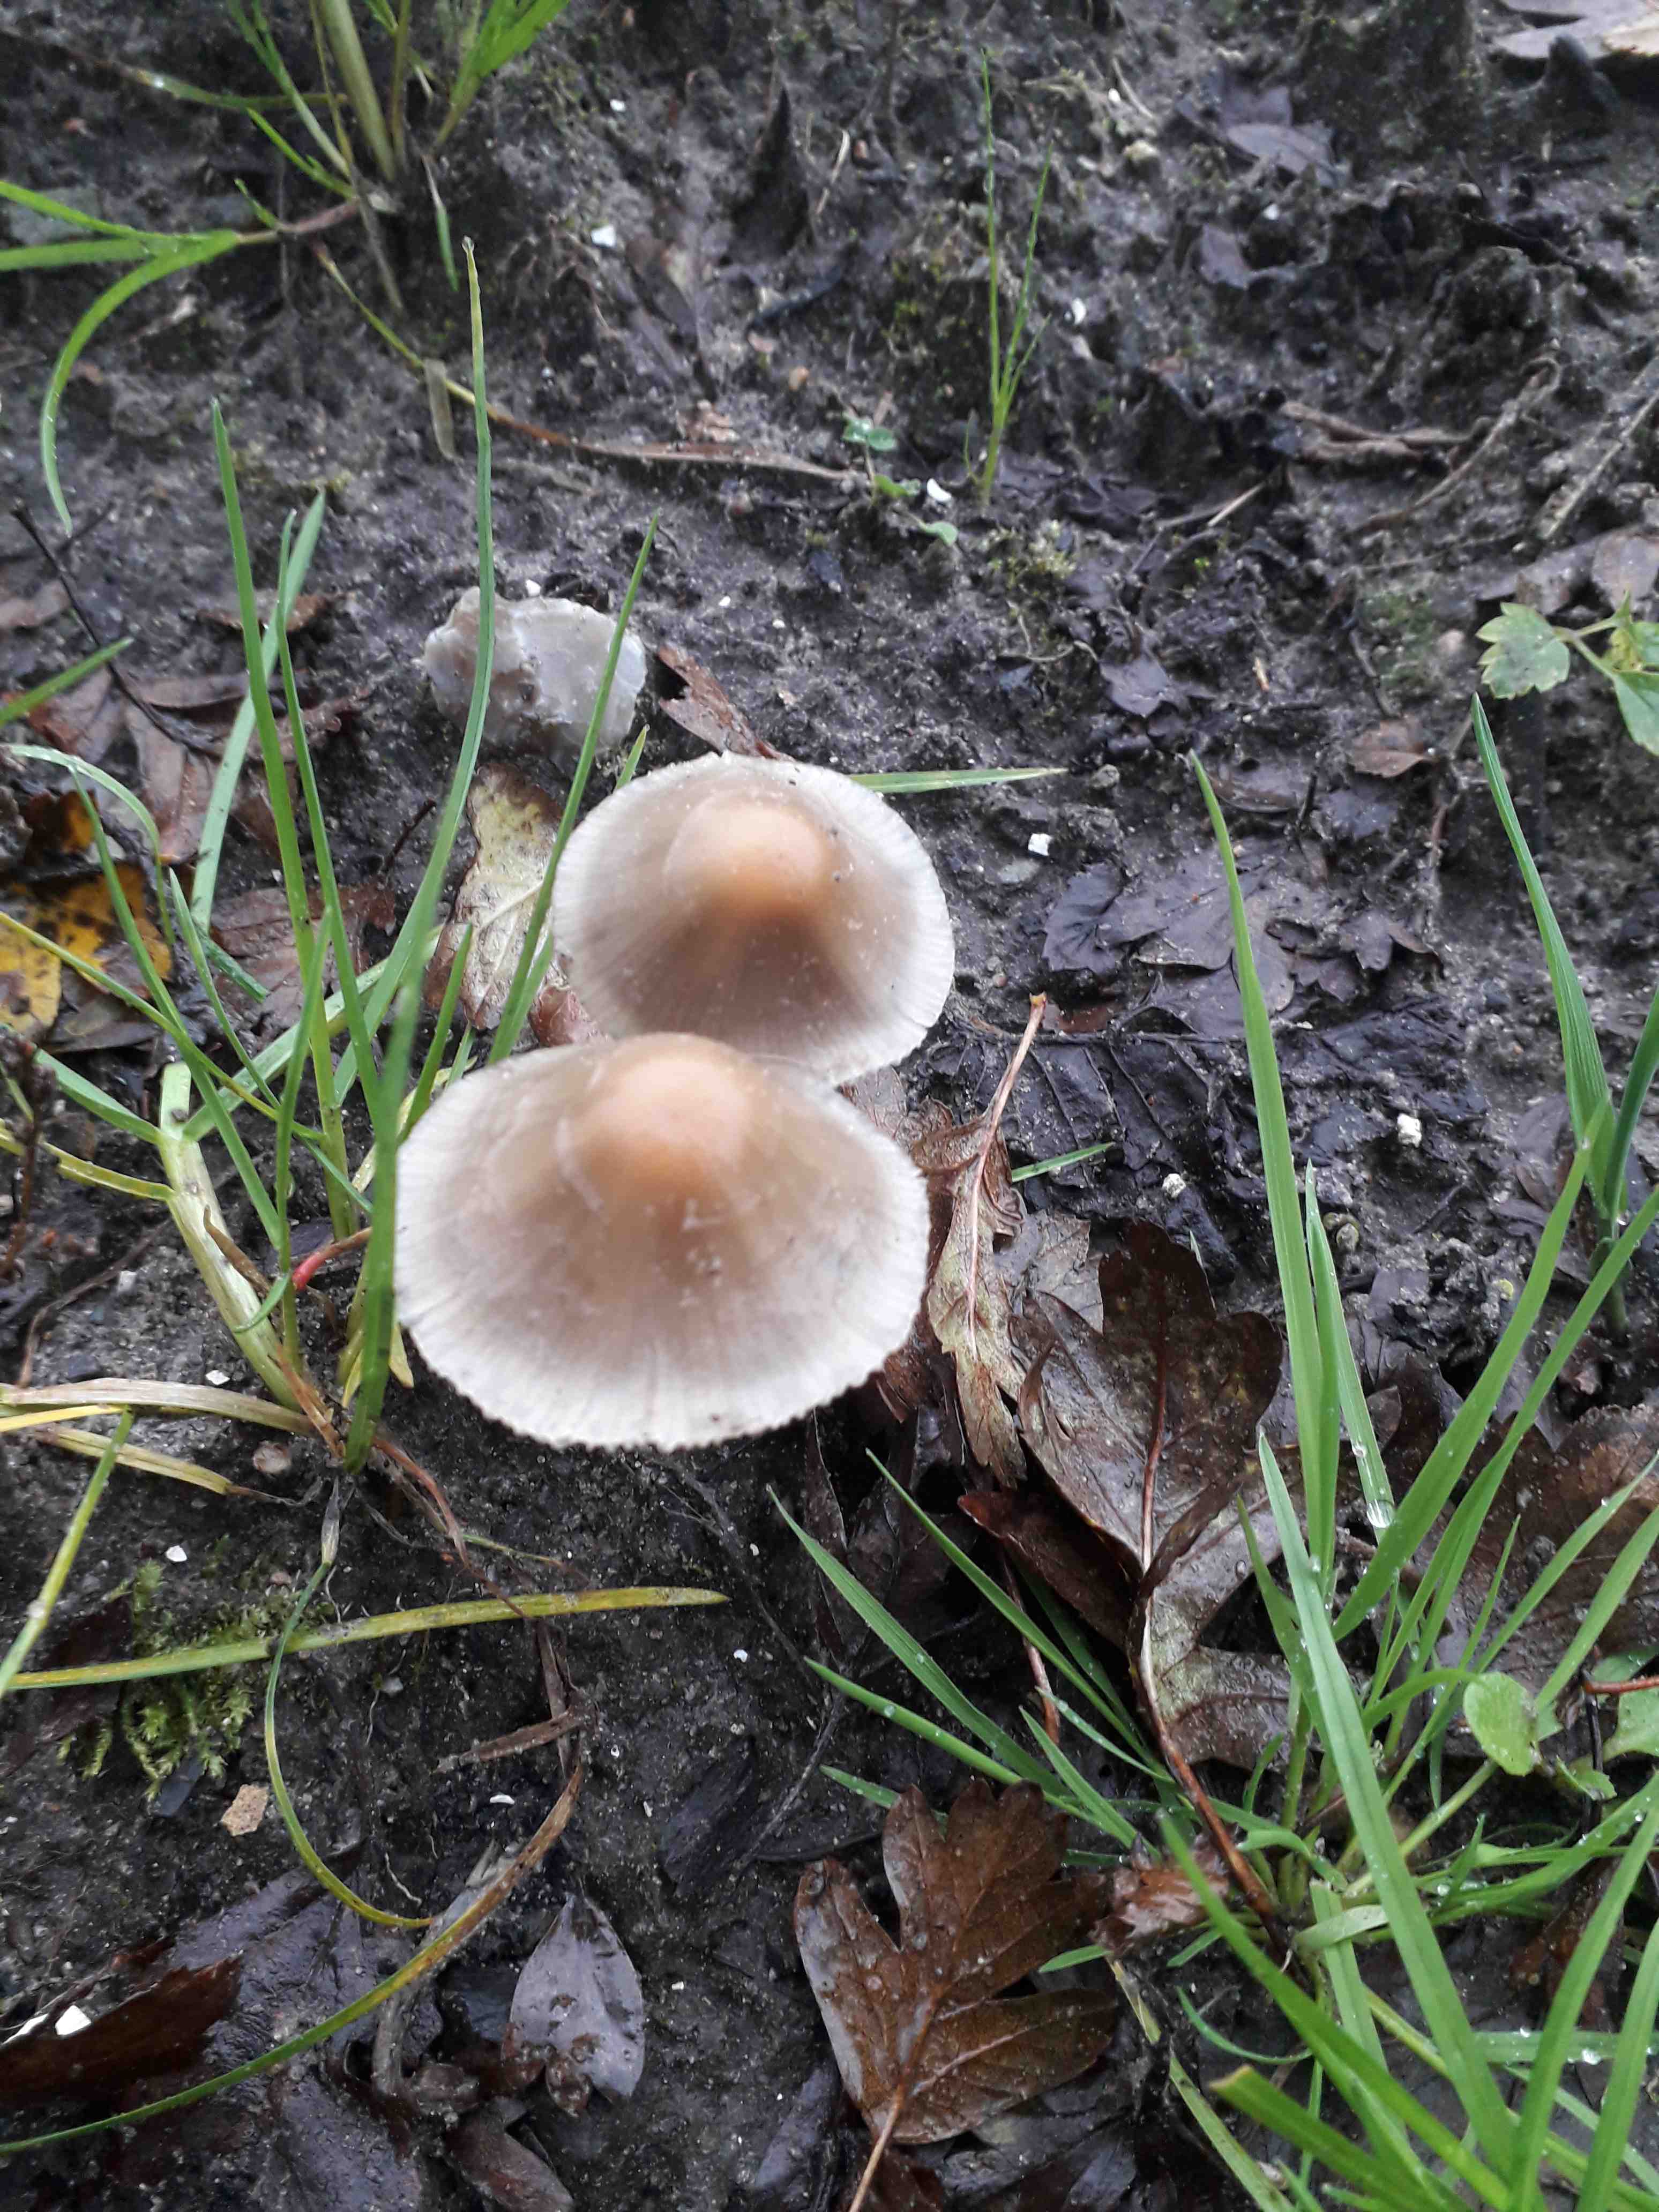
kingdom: Fungi
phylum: Basidiomycota
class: Agaricomycetes
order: Agaricales
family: Psathyrellaceae
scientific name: Psathyrellaceae
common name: mørkhatfamilien
